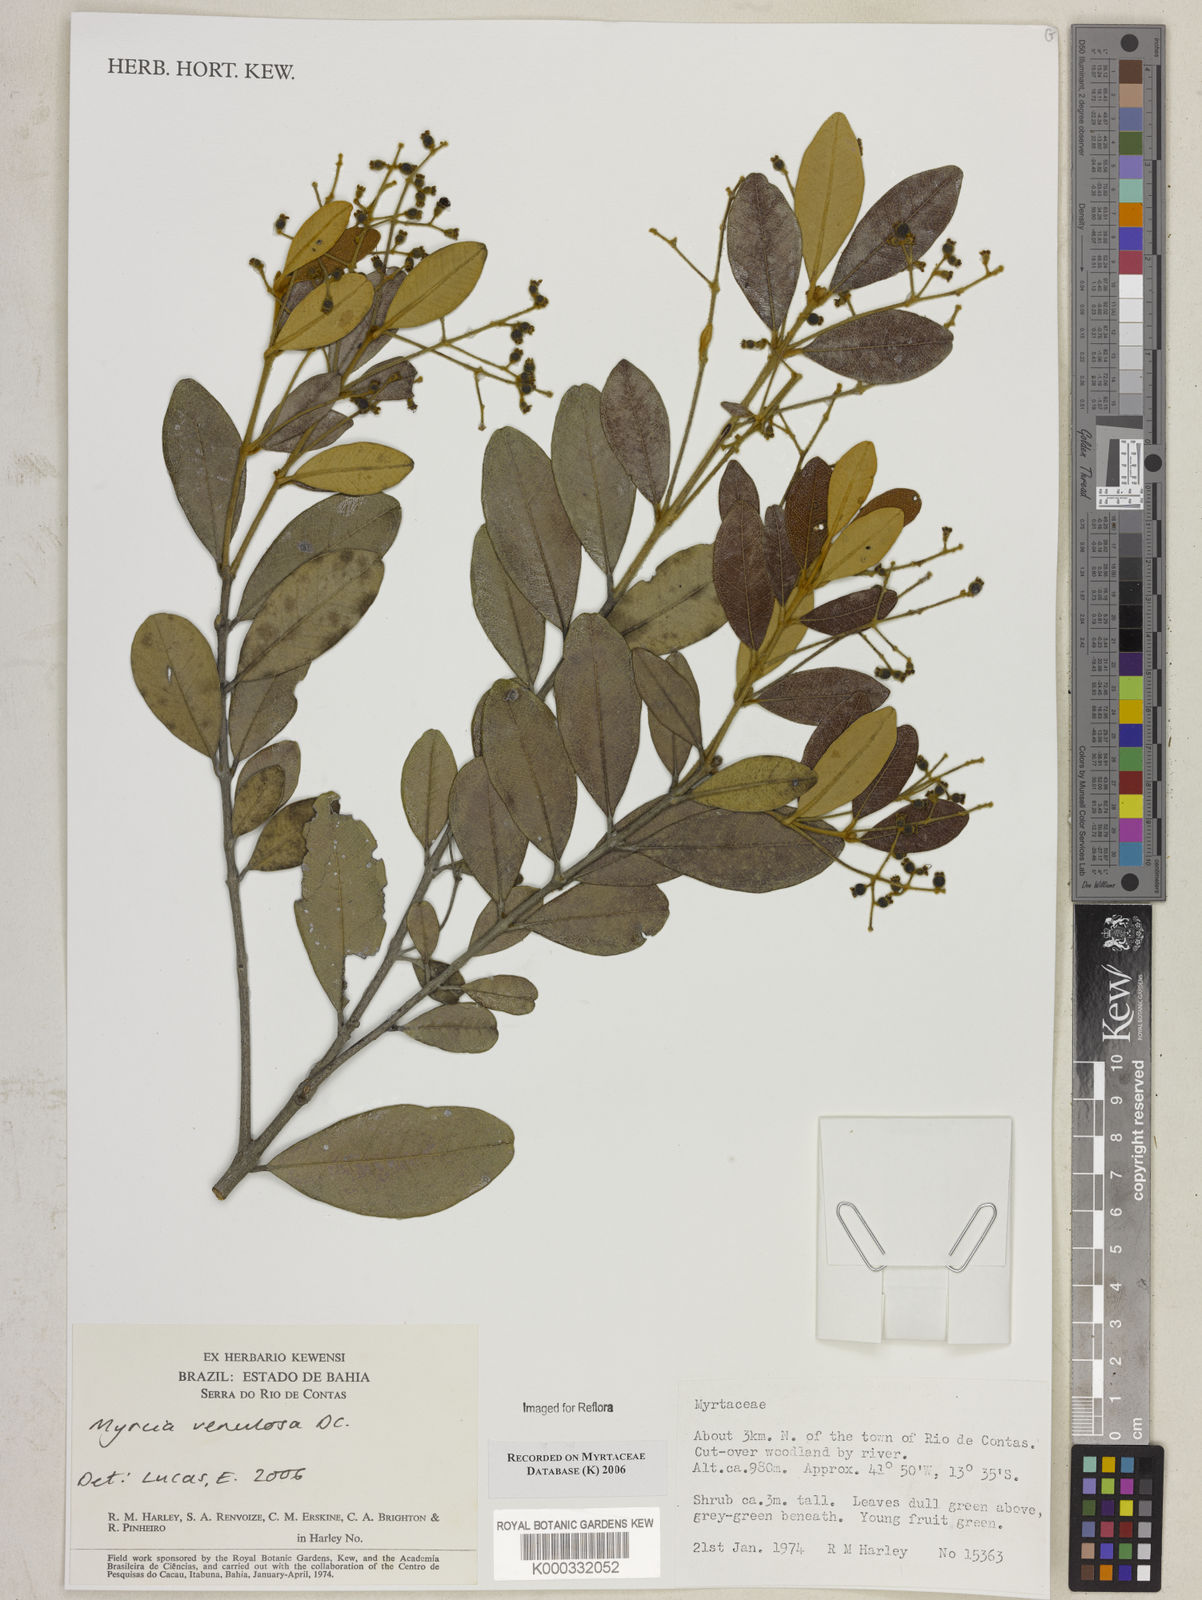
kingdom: Plantae
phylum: Tracheophyta
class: Magnoliopsida
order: Myrtales
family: Myrtaceae
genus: Myrcia
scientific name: Myrcia venulosa
